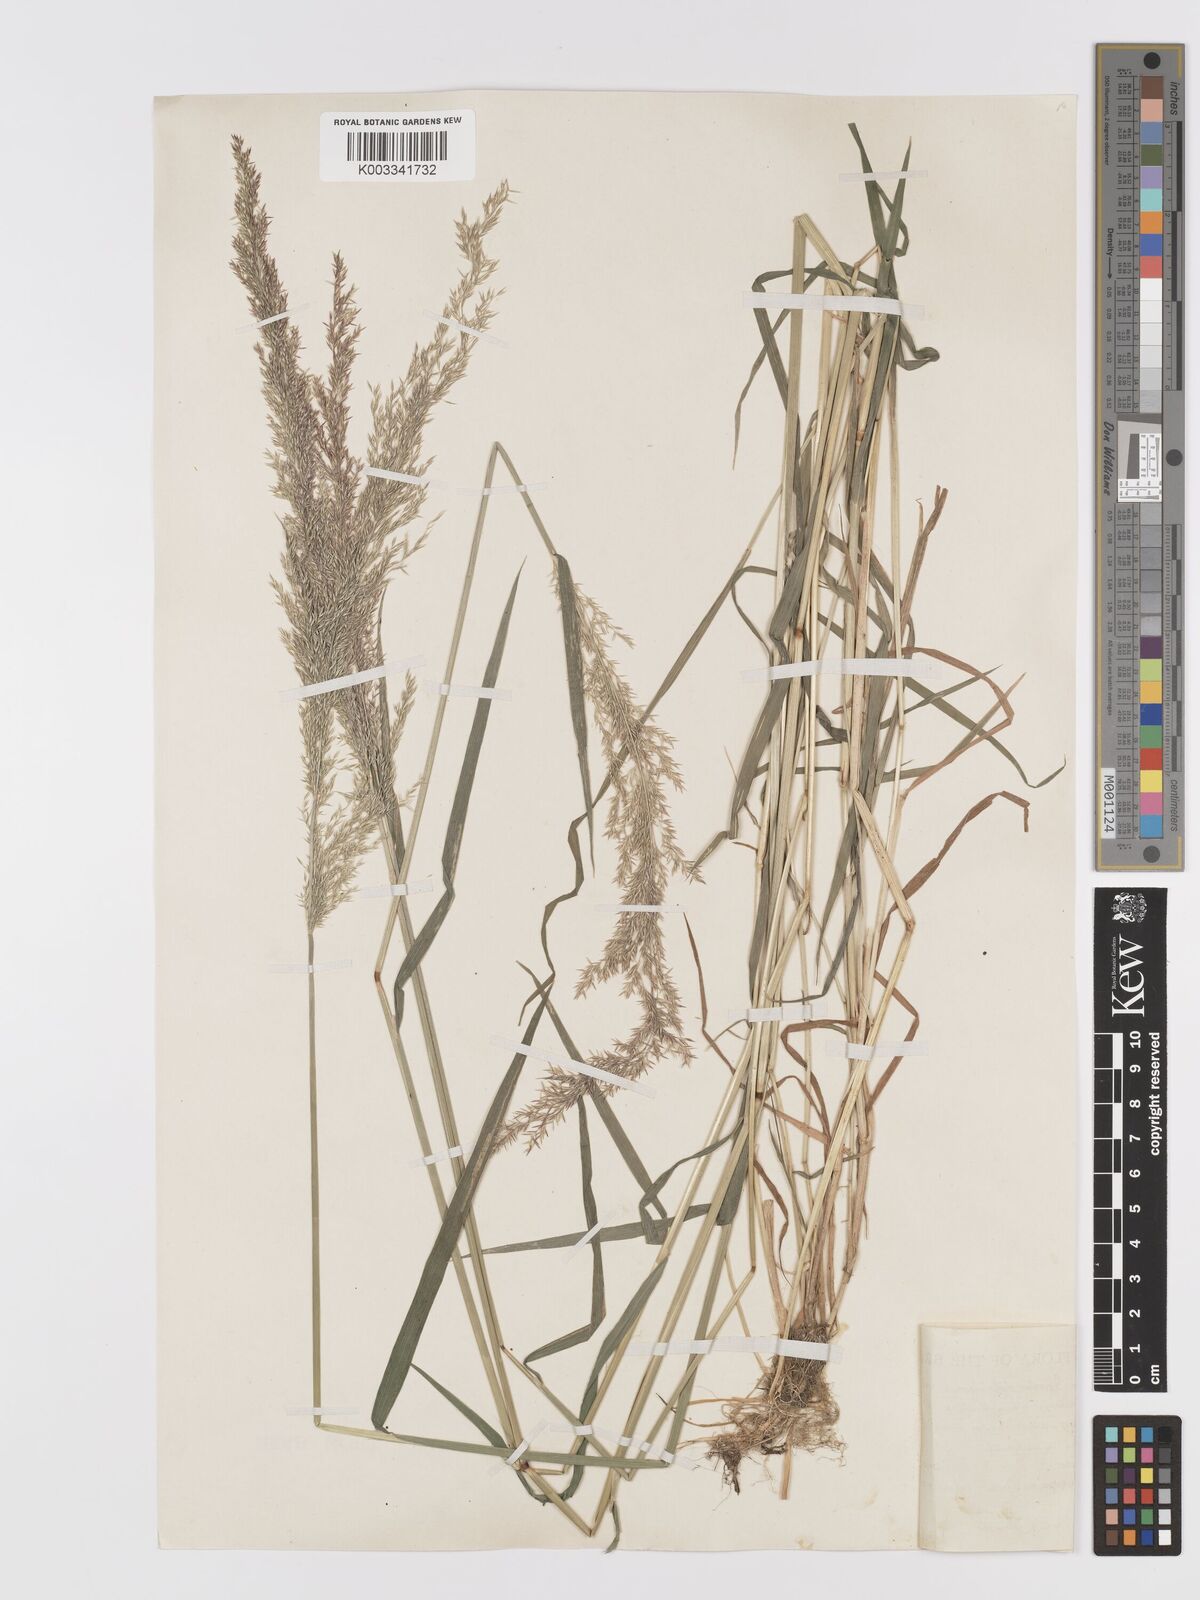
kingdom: Plantae
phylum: Tracheophyta
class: Liliopsida
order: Poales
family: Poaceae
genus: Agrostis
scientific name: Agrostis stolonifera
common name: Creeping bentgrass
